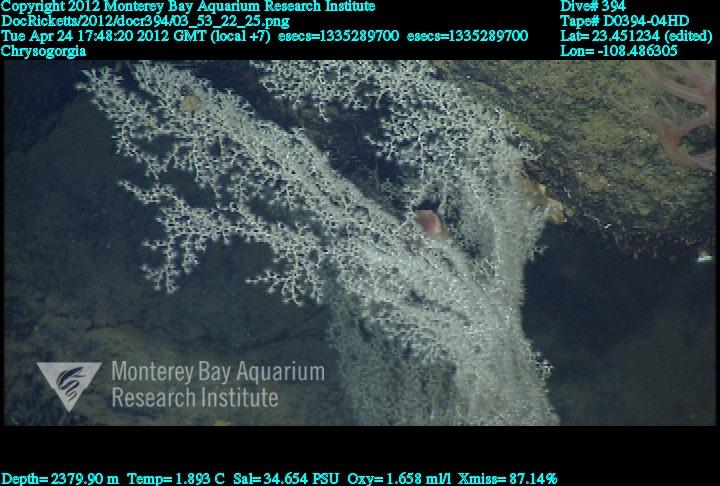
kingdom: Animalia
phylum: Cnidaria
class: Anthozoa
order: Scleralcyonacea
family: Chrysogorgiidae
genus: Chrysogorgia
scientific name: Chrysogorgia
